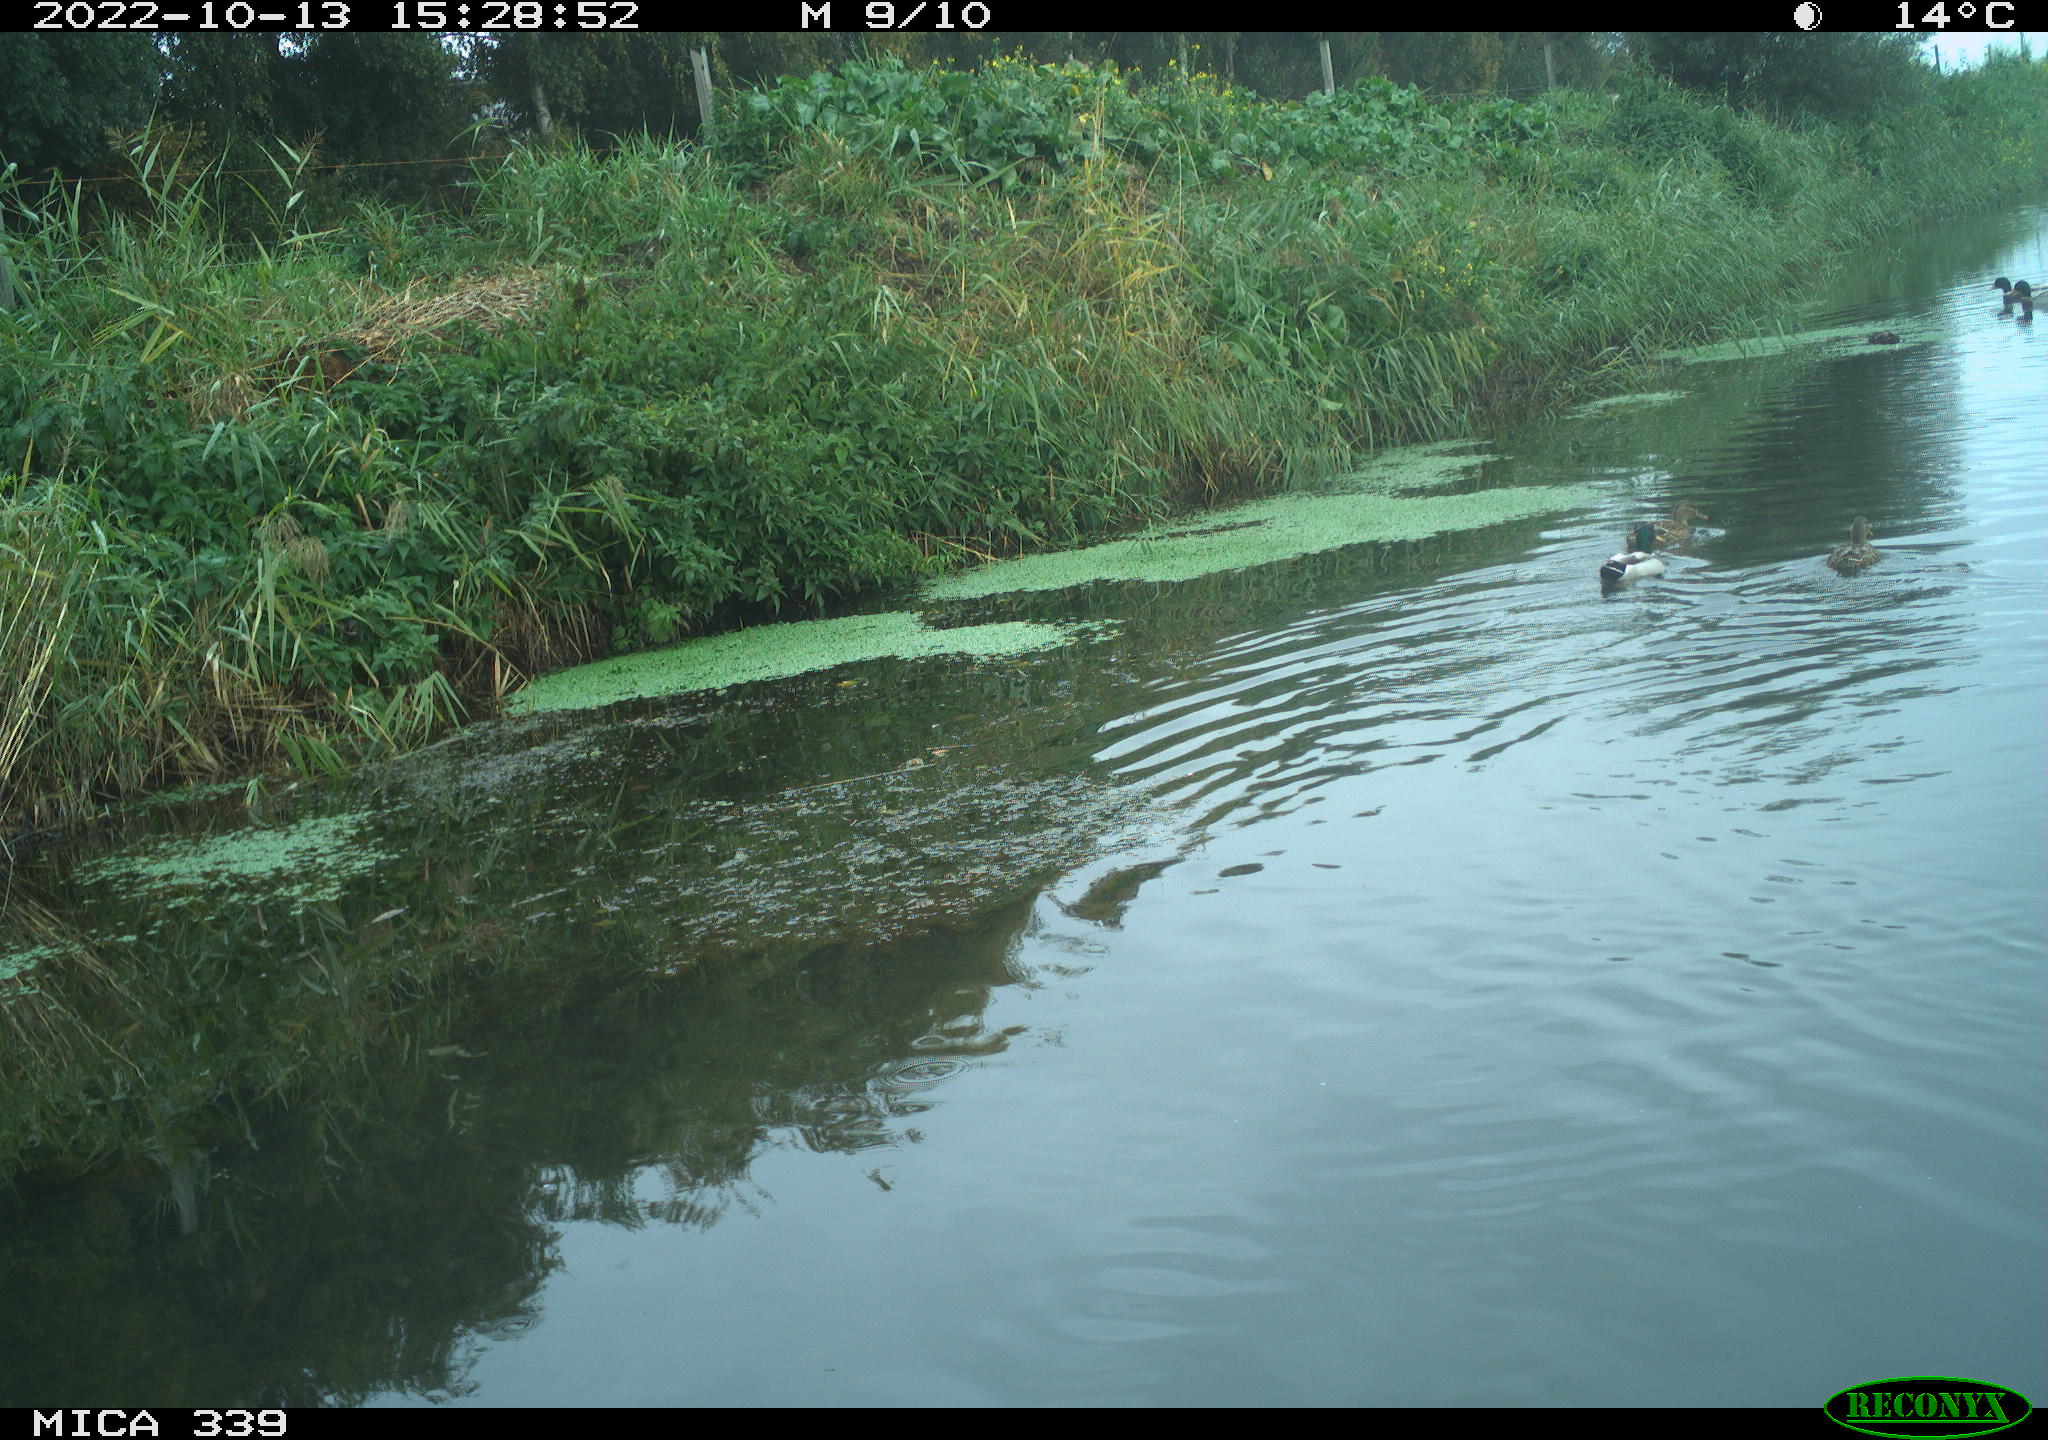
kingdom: Animalia
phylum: Chordata
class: Aves
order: Anseriformes
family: Anatidae
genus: Anas
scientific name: Anas platyrhynchos
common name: Mallard
